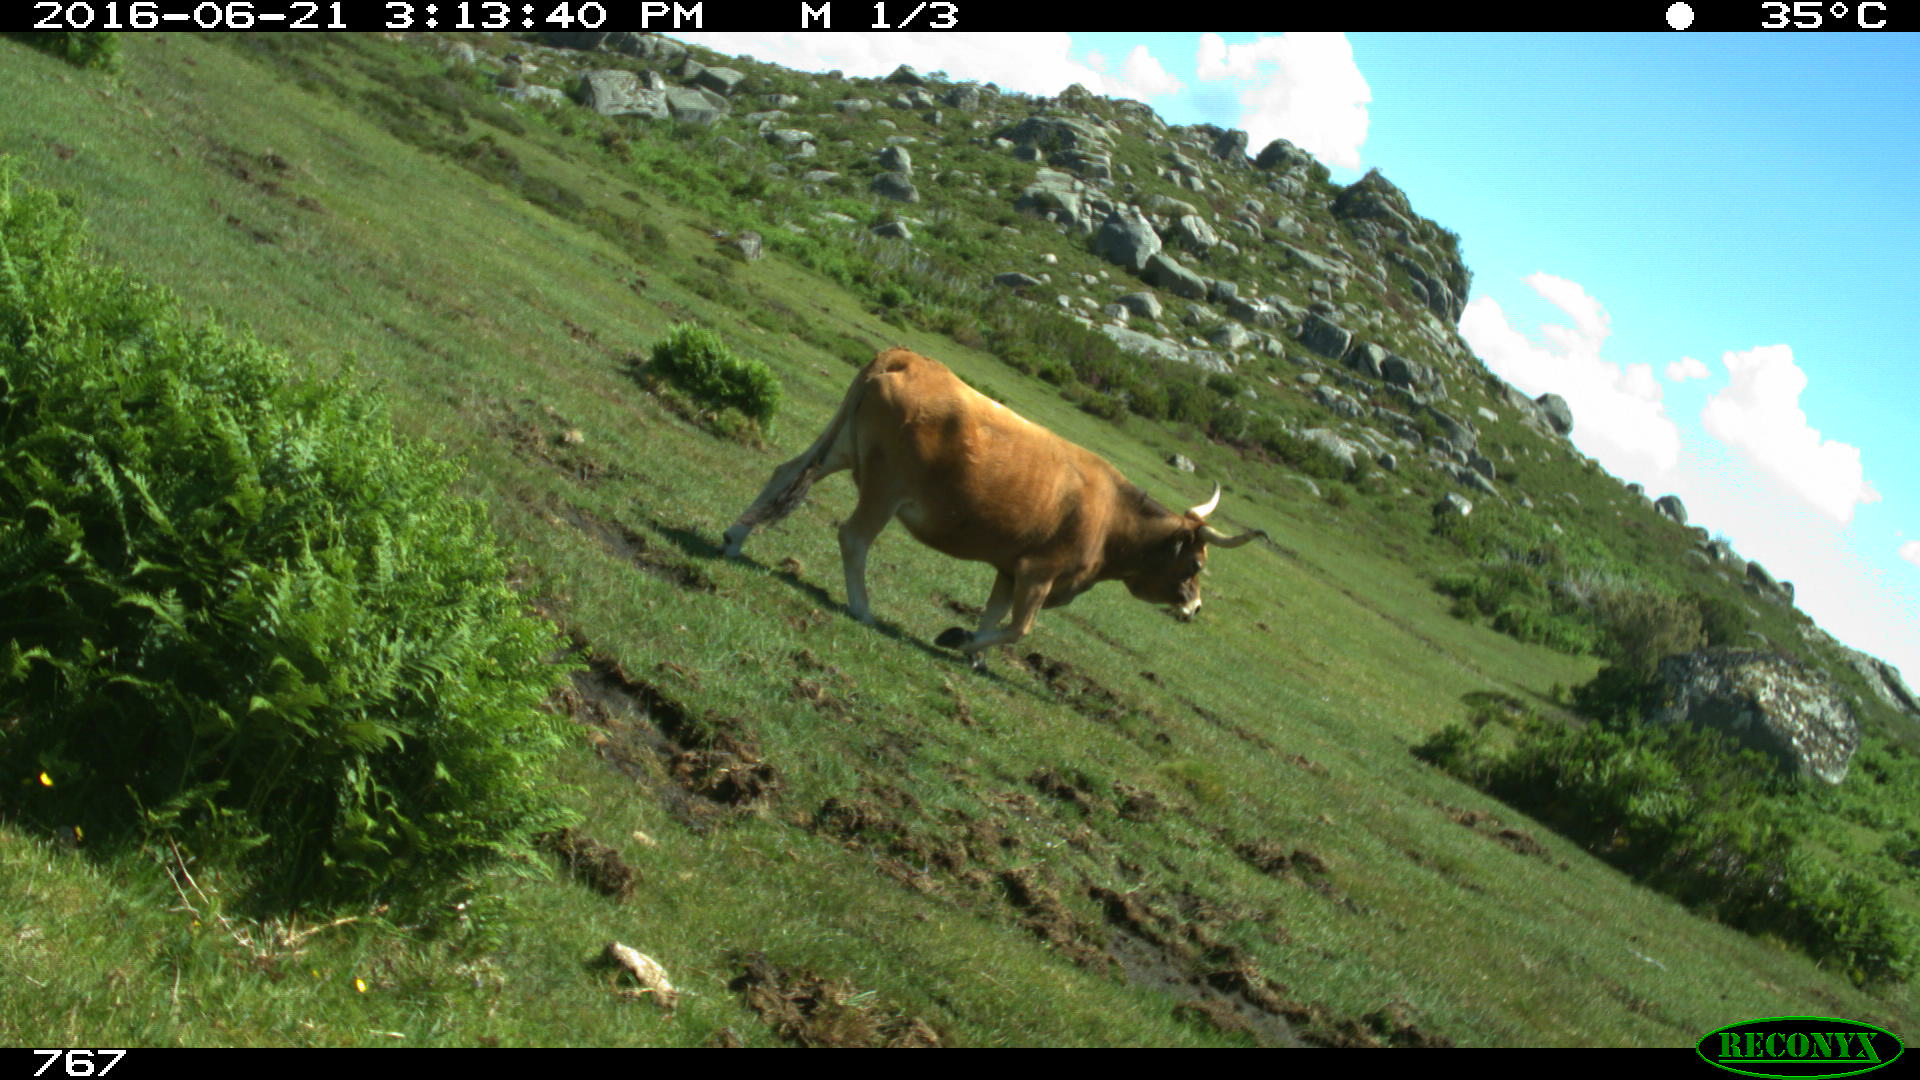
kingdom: Animalia
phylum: Chordata
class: Mammalia
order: Artiodactyla
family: Bovidae
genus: Bos
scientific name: Bos taurus
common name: Domesticated cattle
